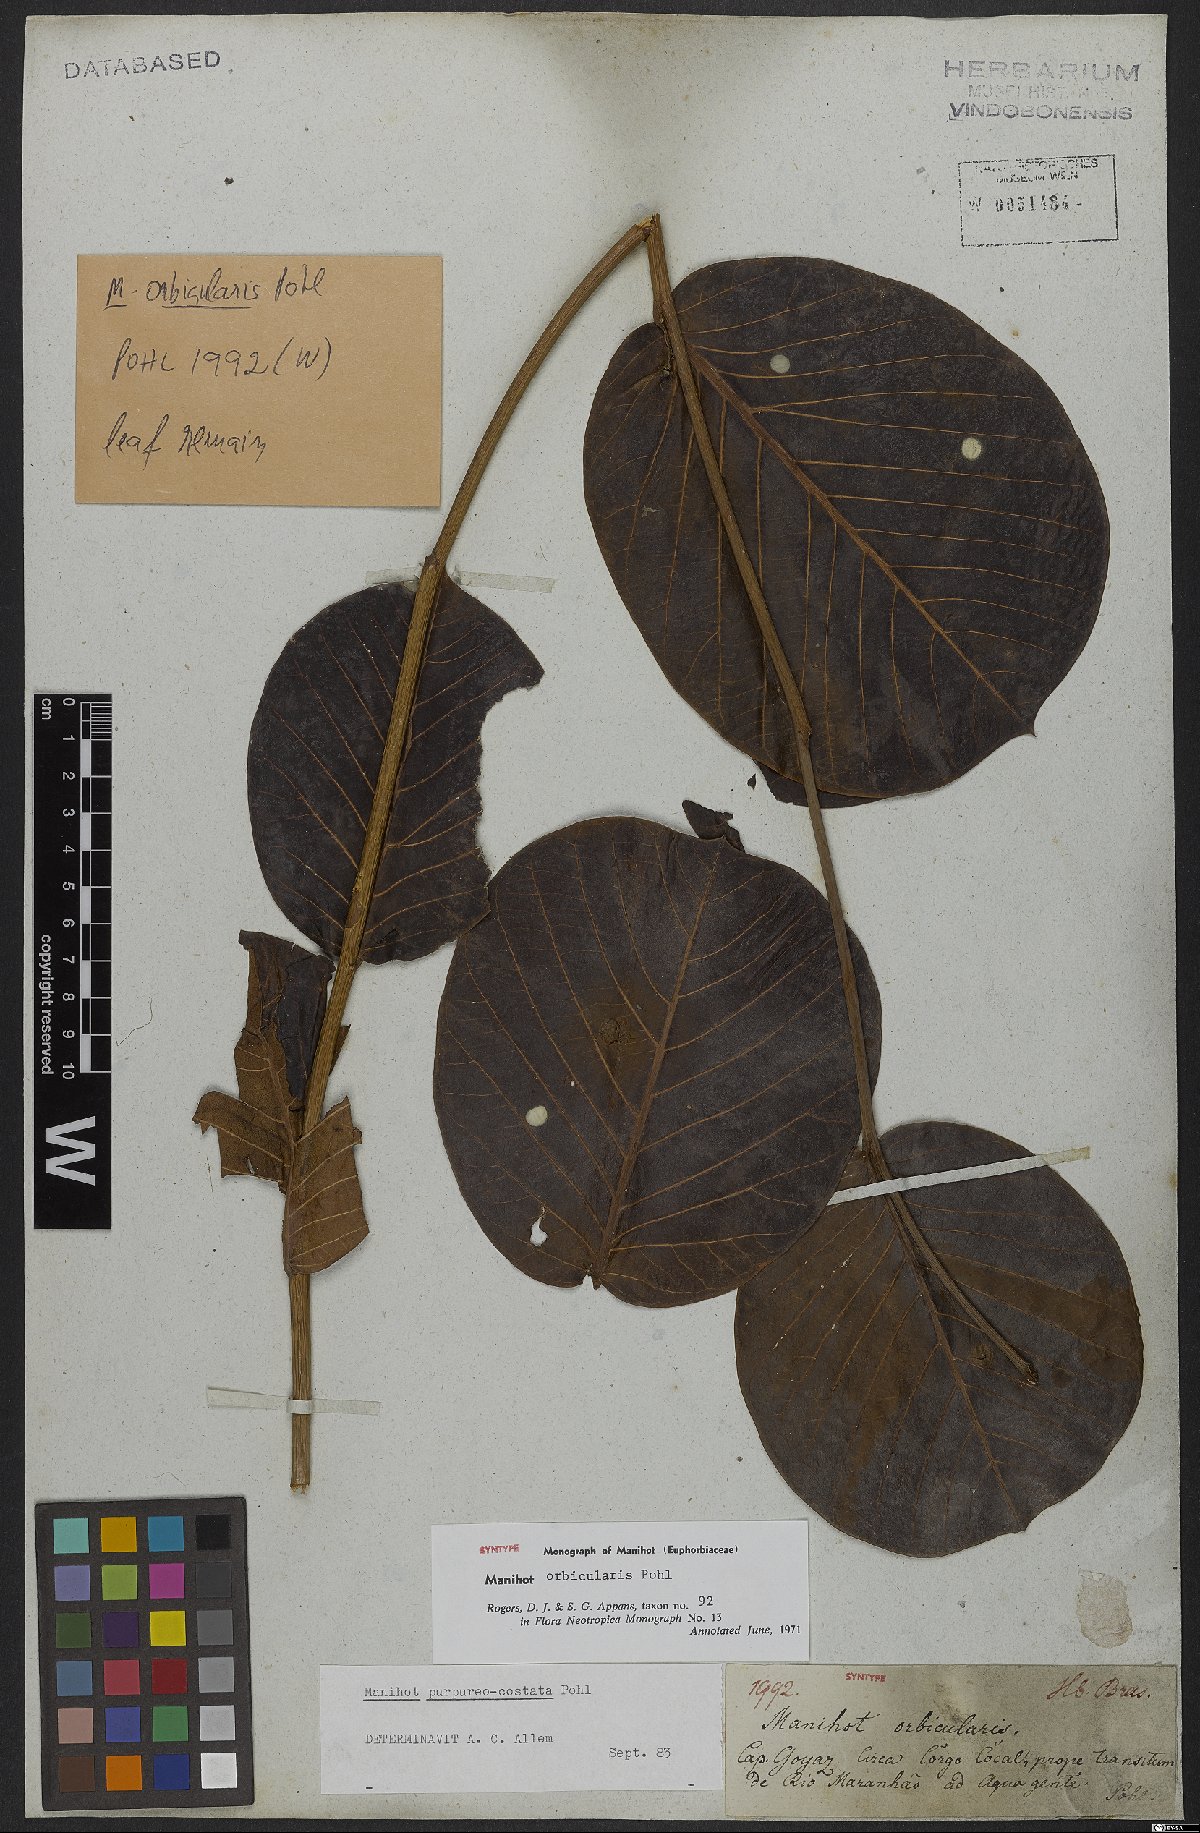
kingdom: Plantae
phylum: Tracheophyta
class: Magnoliopsida
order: Malpighiales
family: Euphorbiaceae
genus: Manihot
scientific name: Manihot orbicularis
